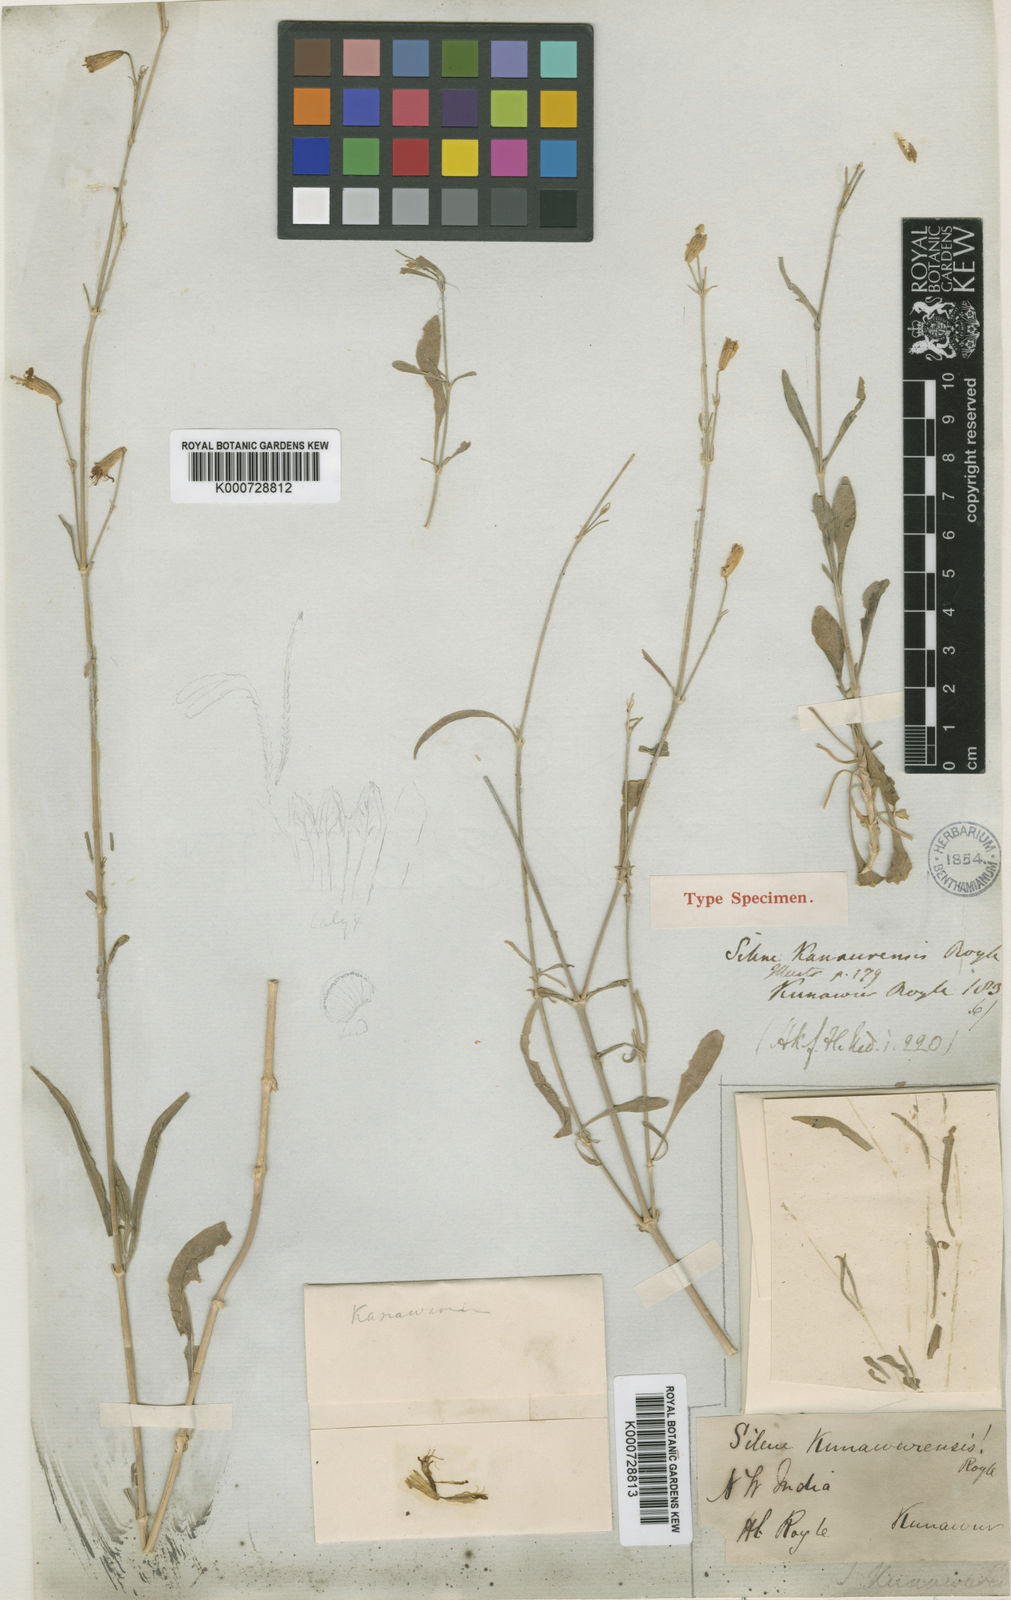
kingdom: Plantae
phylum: Tracheophyta
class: Magnoliopsida
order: Caryophyllales
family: Caryophyllaceae
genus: Silene
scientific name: Silene
